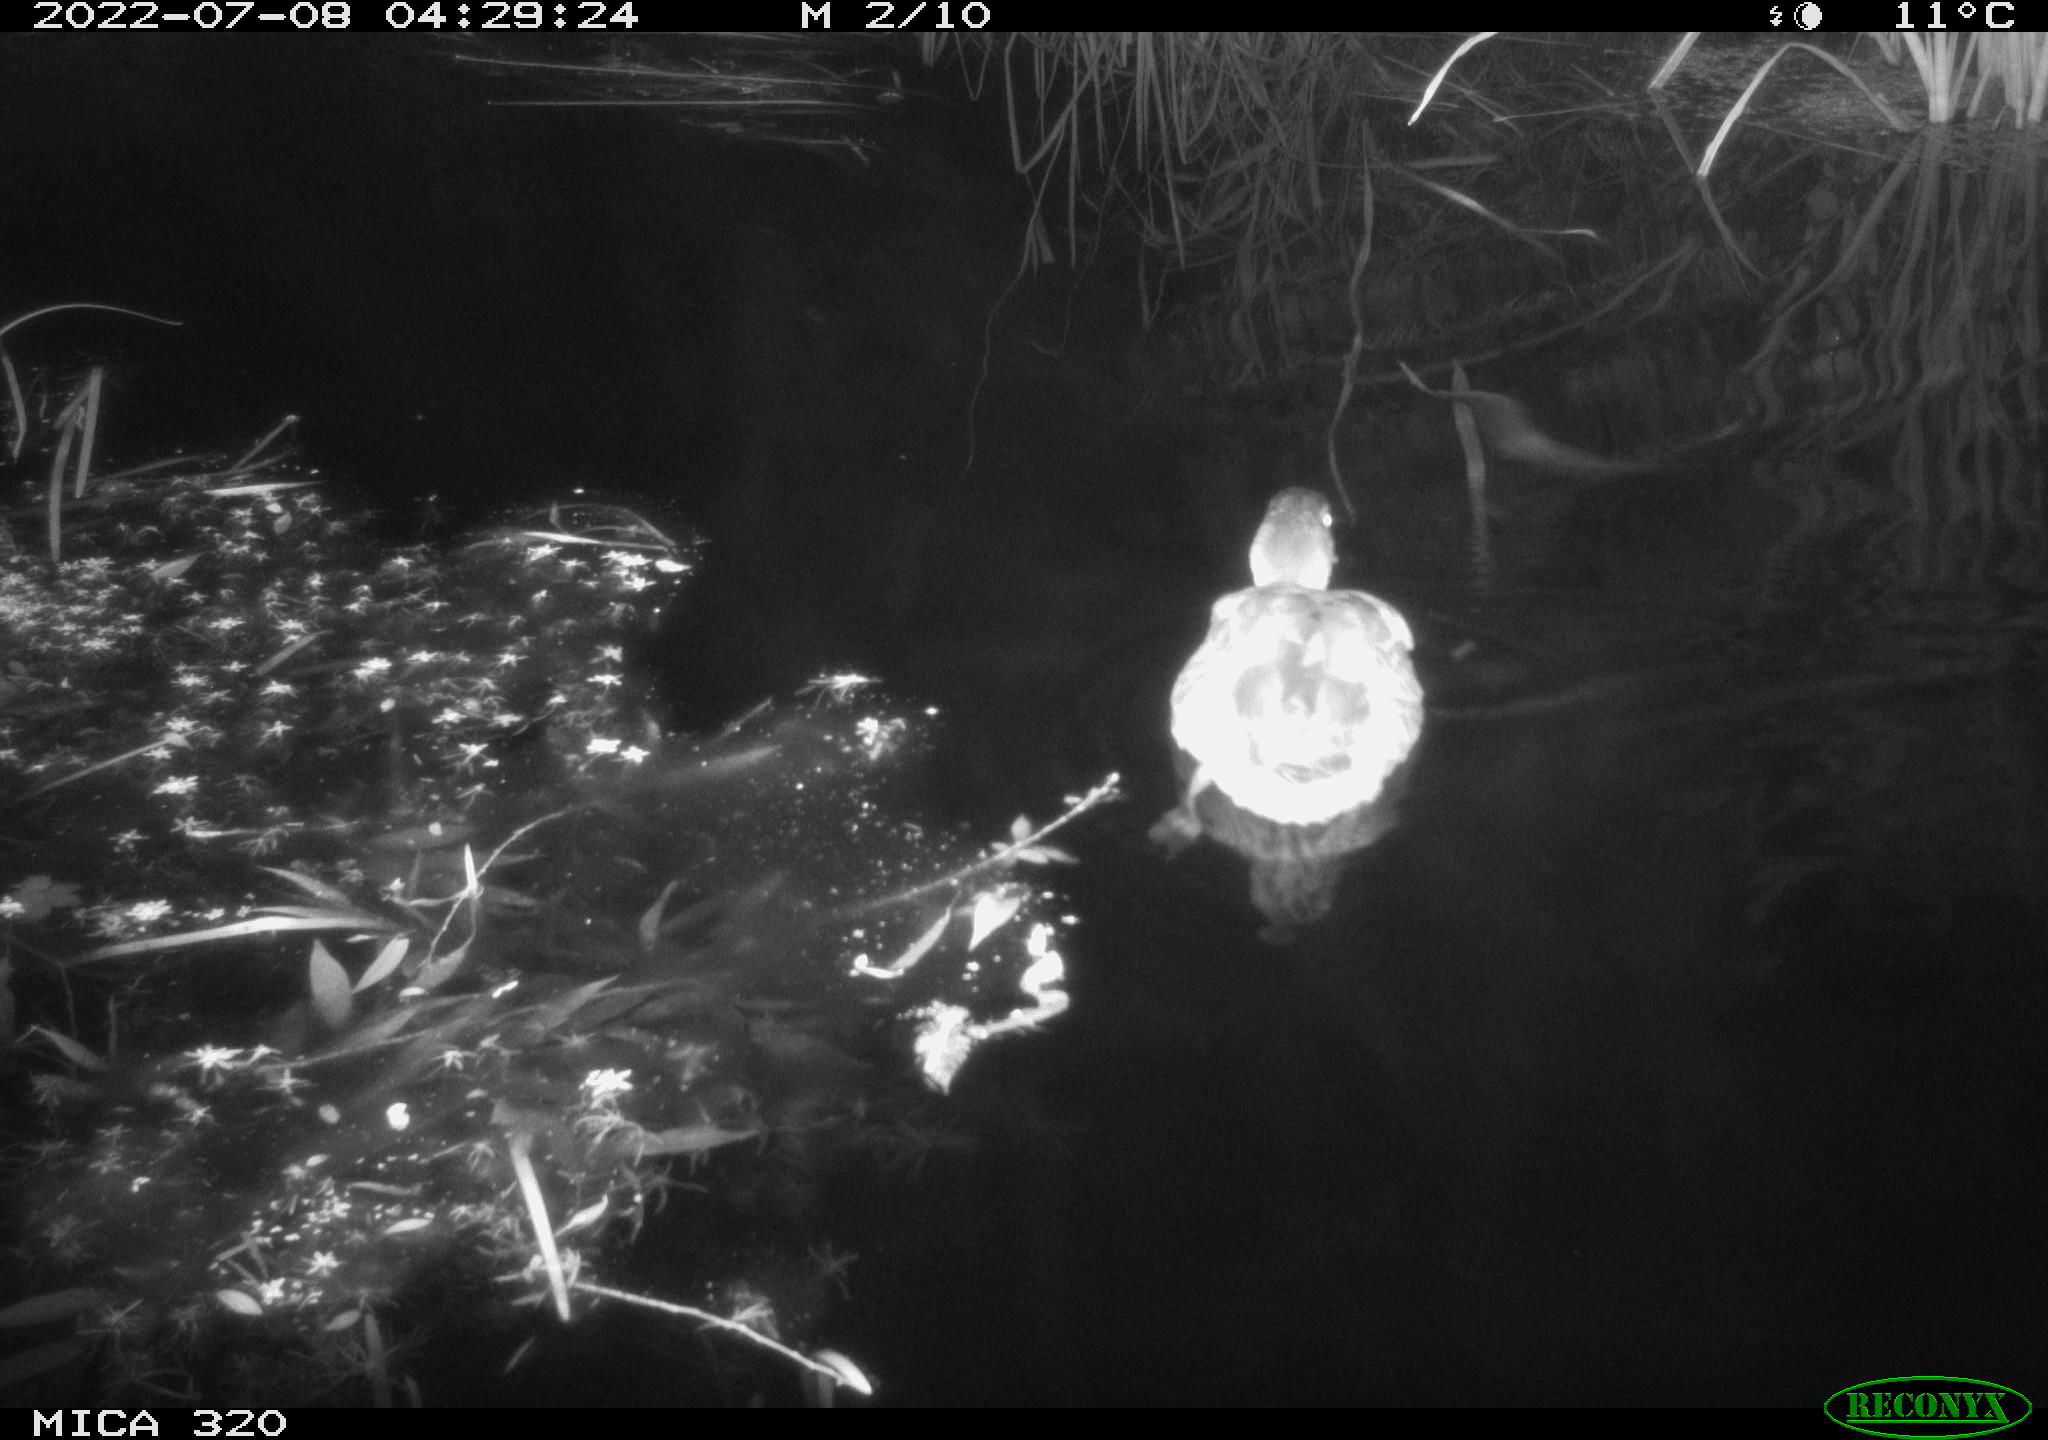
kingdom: Animalia
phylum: Chordata
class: Aves
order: Anseriformes
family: Anatidae
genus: Mareca
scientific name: Mareca strepera
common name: Gadwall
